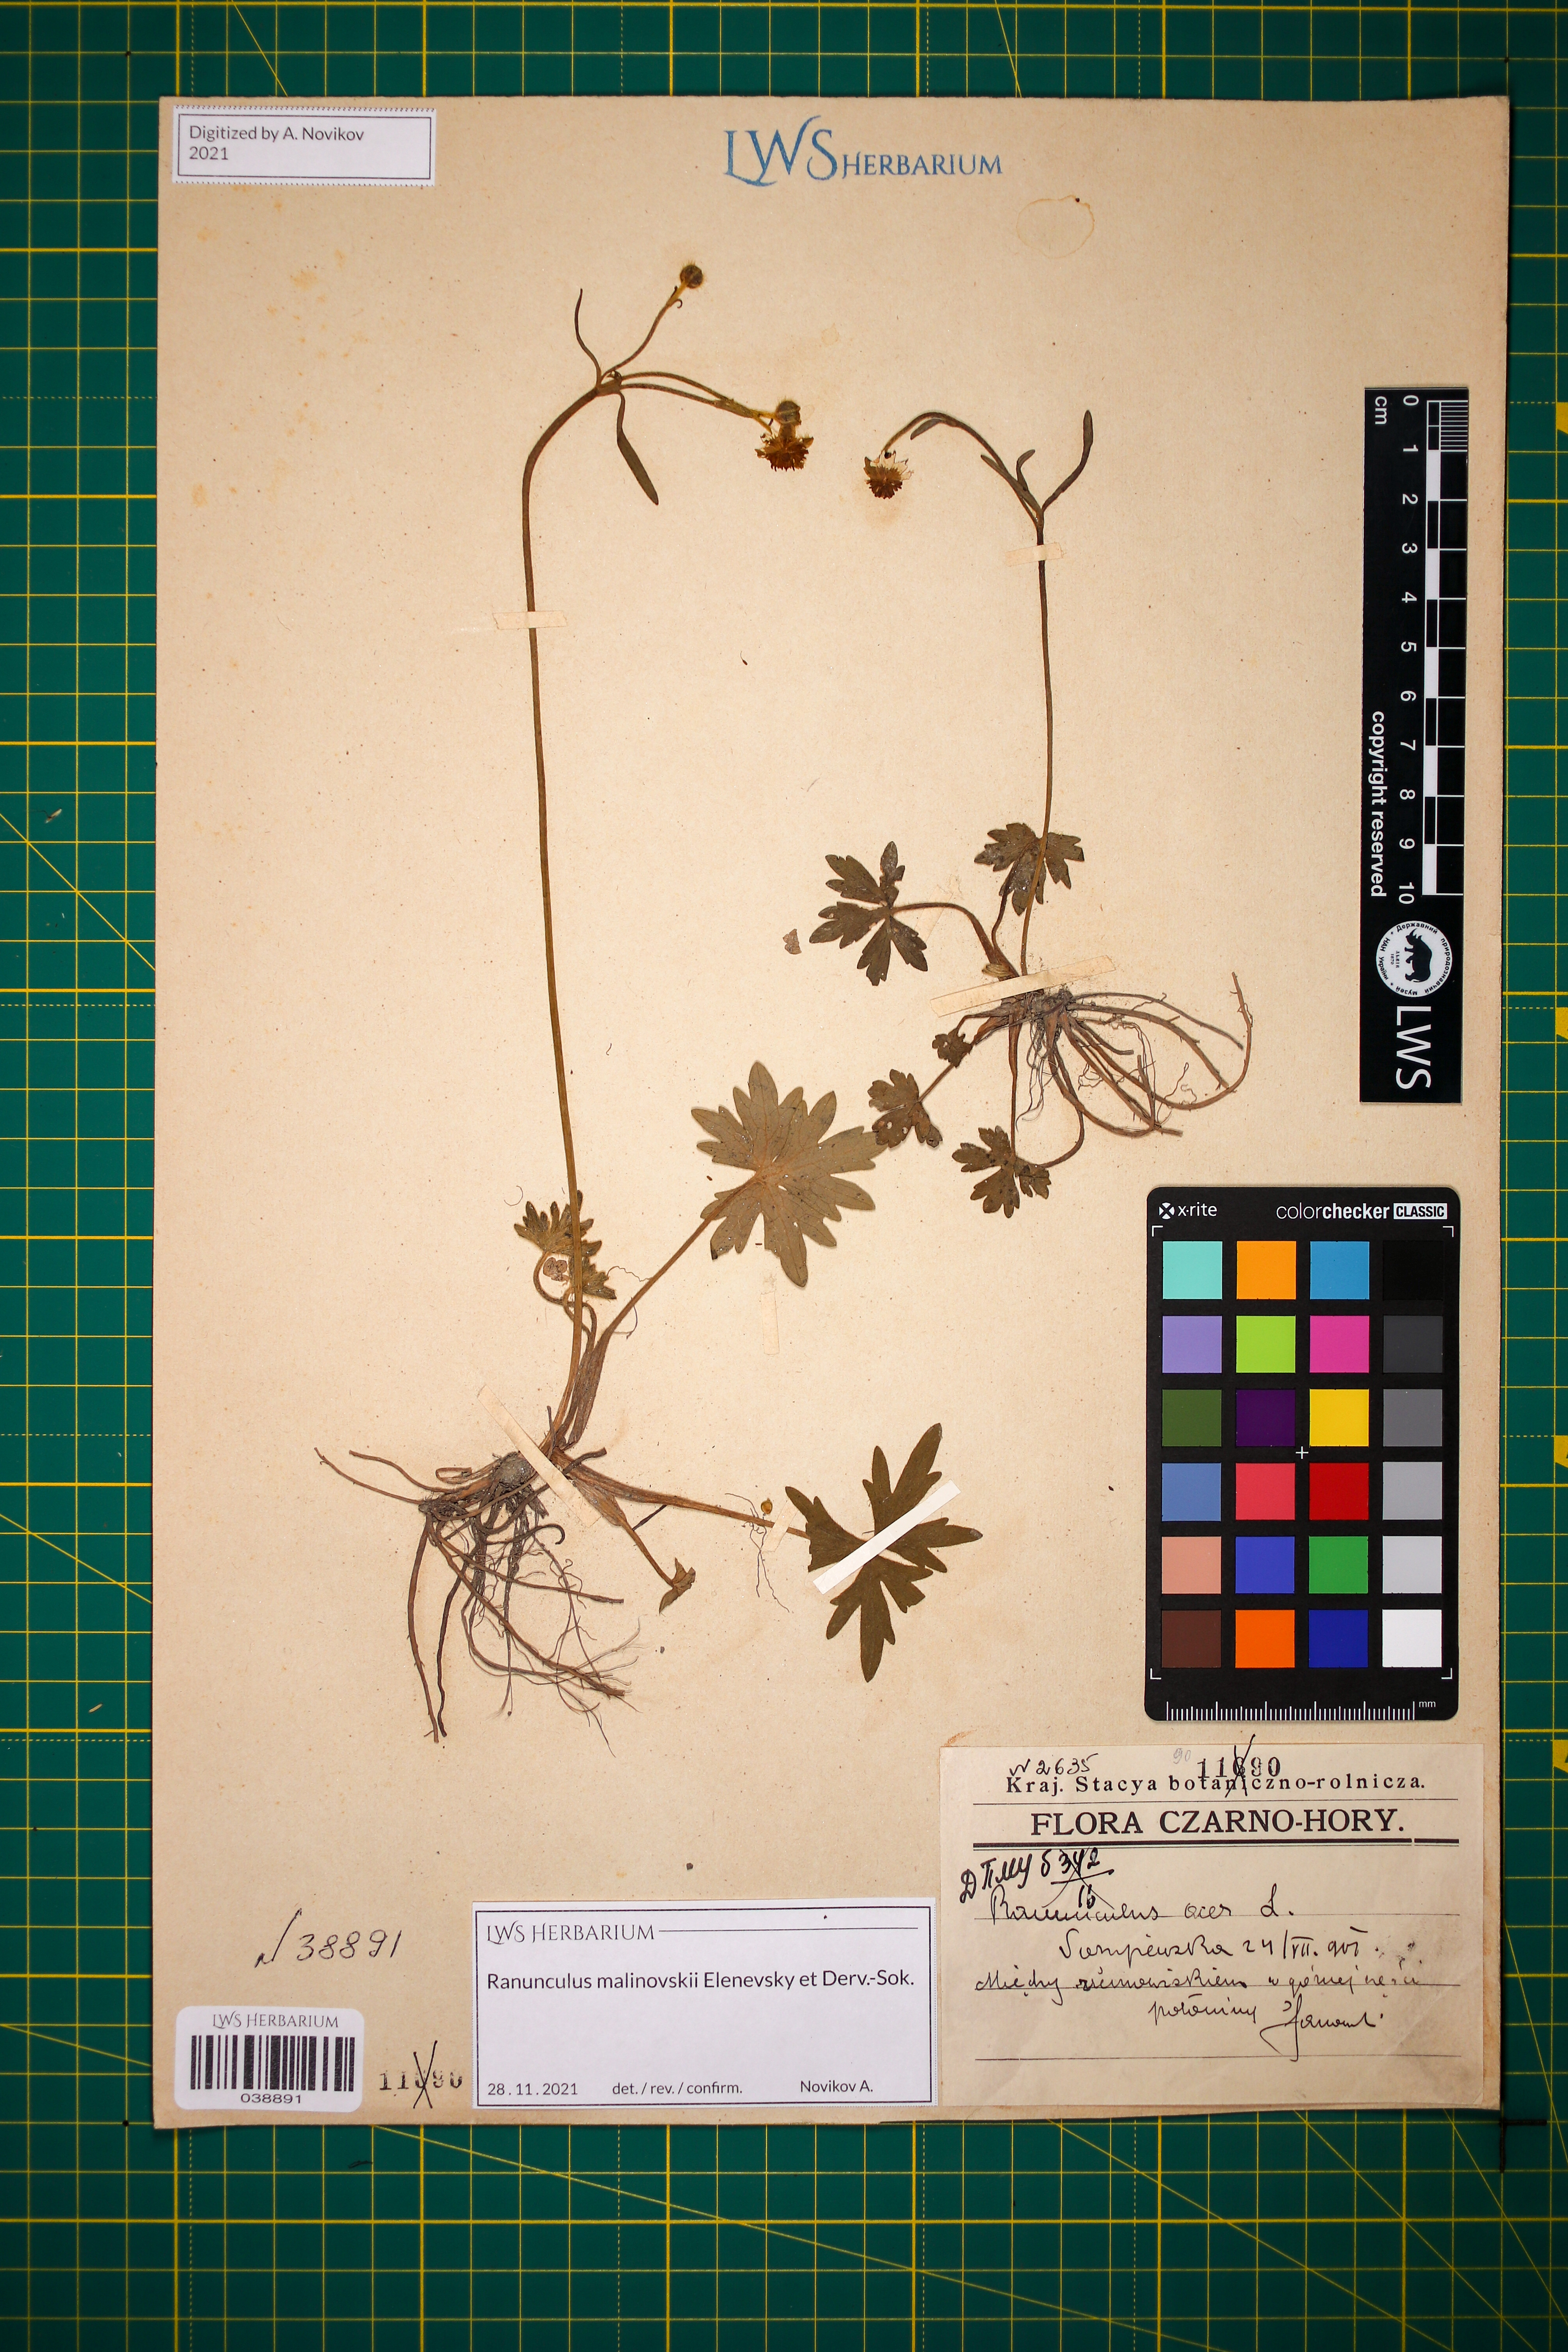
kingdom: Plantae
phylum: Tracheophyta
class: Magnoliopsida
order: Ranunculales
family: Ranunculaceae
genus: Ranunculus
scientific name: Ranunculus malinovskii
